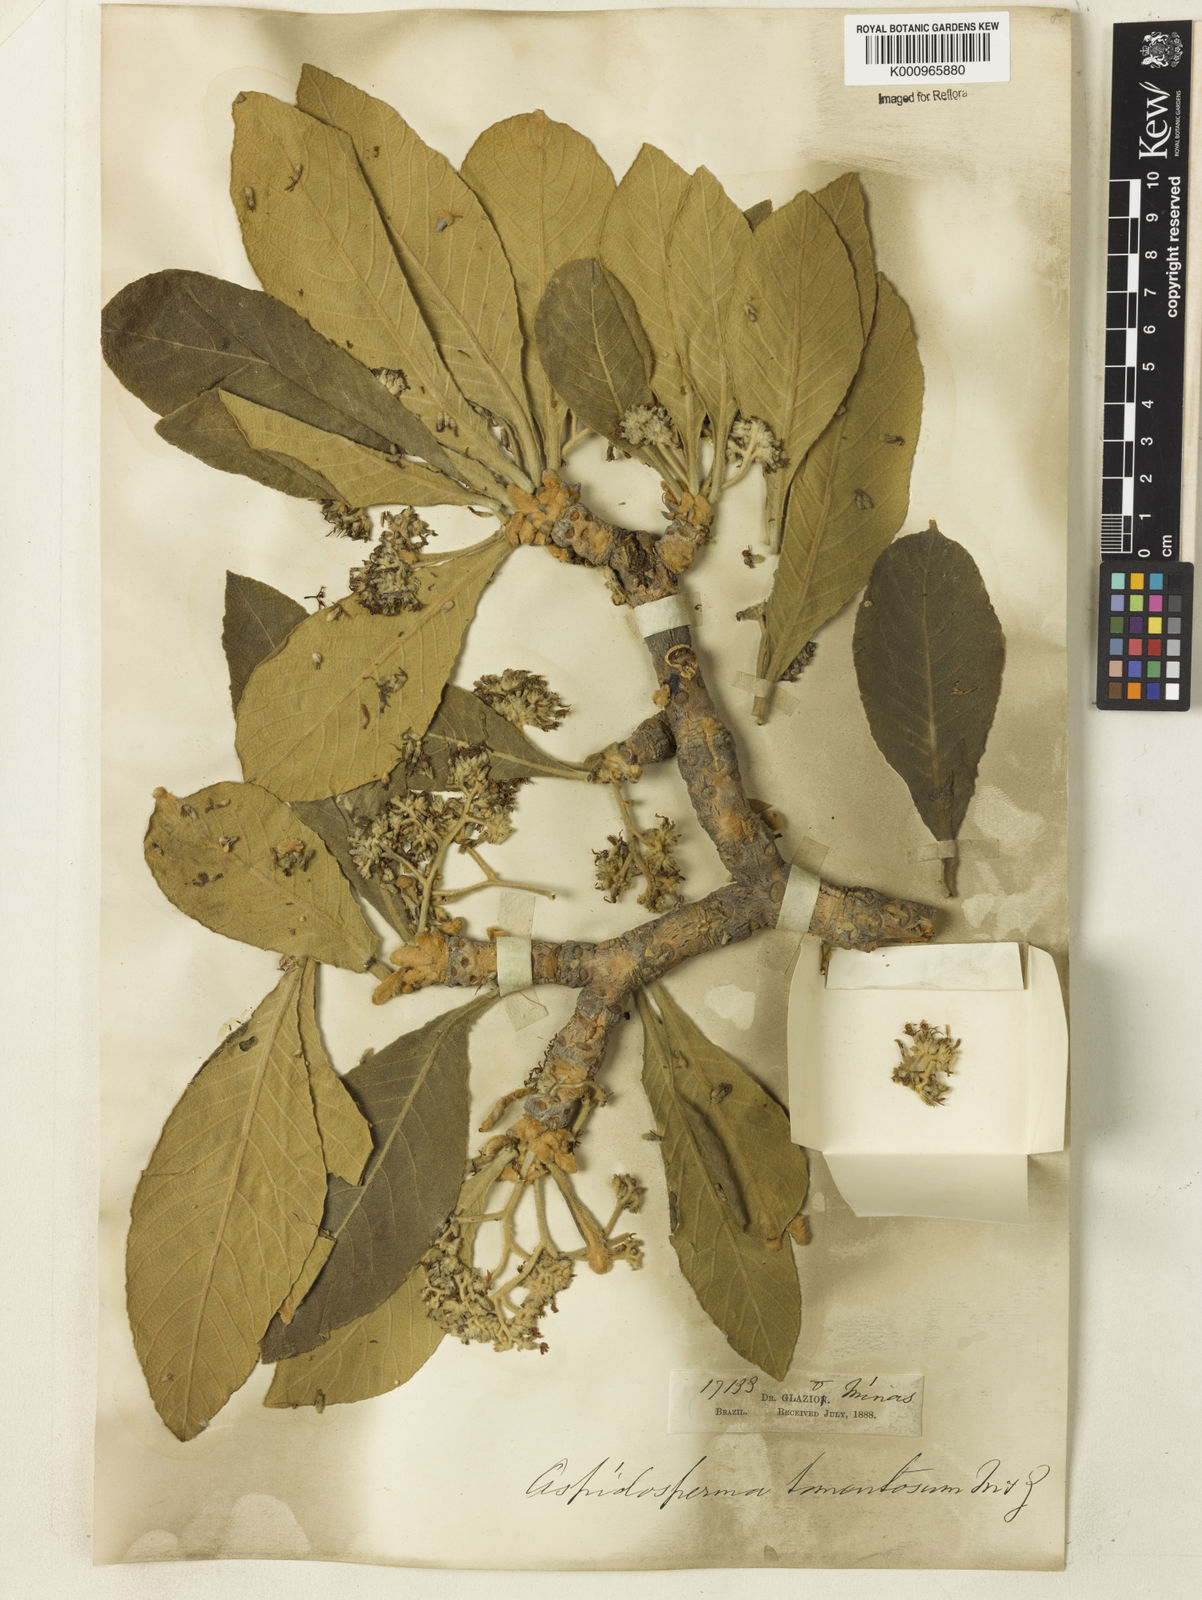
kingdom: Plantae
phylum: Tracheophyta
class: Magnoliopsida
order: Gentianales
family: Apocynaceae
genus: Aspidosperma
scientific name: Aspidosperma tomentosum
